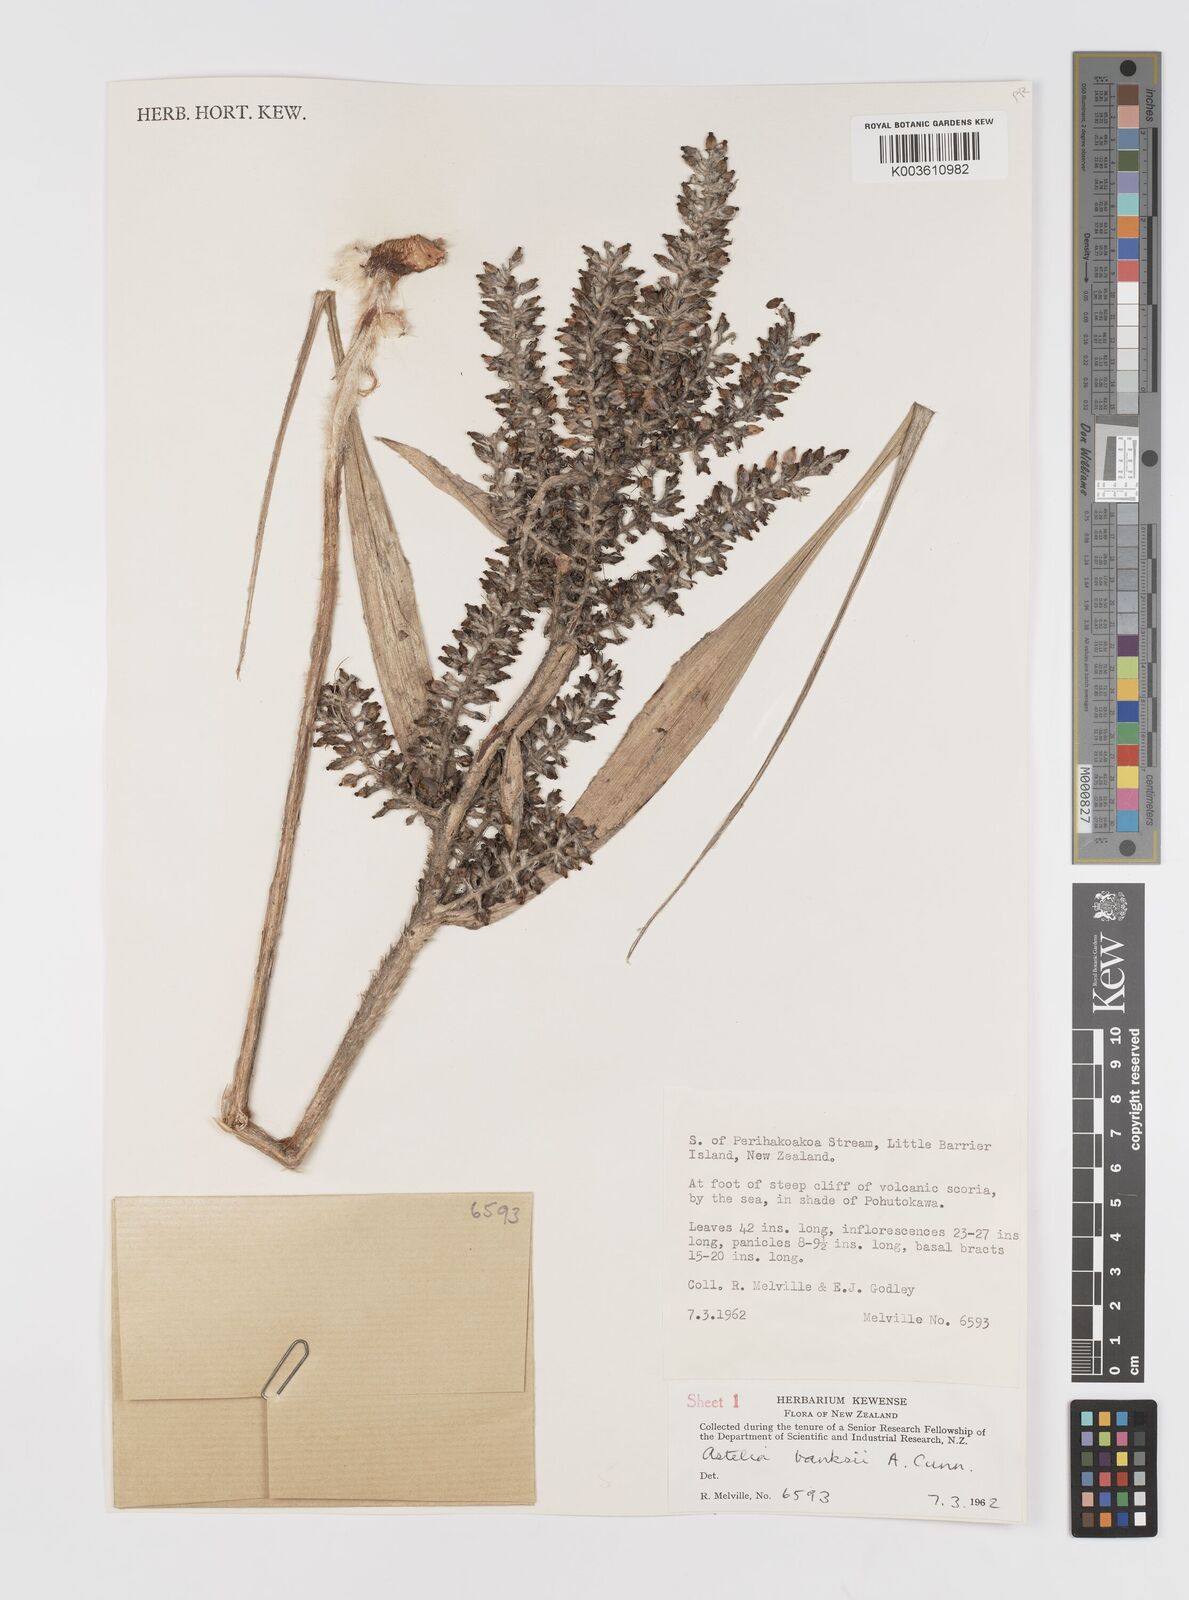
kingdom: Plantae
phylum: Tracheophyta
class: Liliopsida
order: Asparagales
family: Asteliaceae
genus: Astelia
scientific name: Astelia banksii
